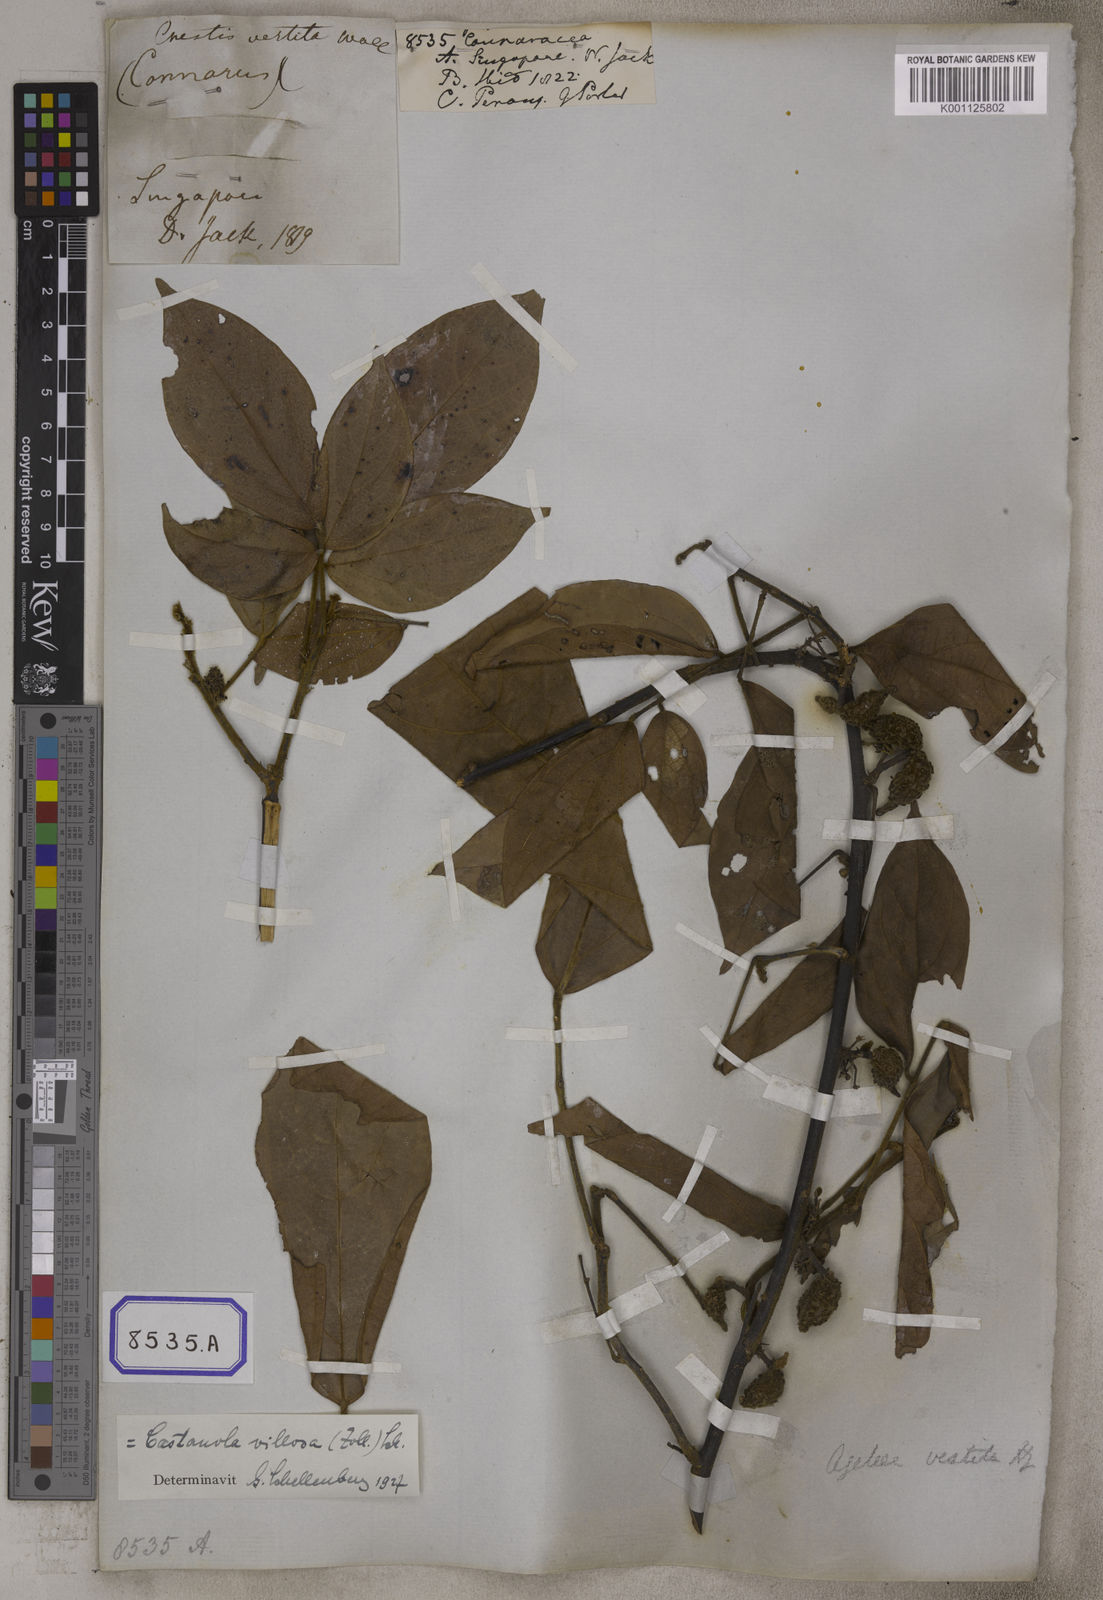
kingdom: Plantae
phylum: Tracheophyta
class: Magnoliopsida
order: Oxalidales
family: Connaraceae
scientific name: Connaraceae
